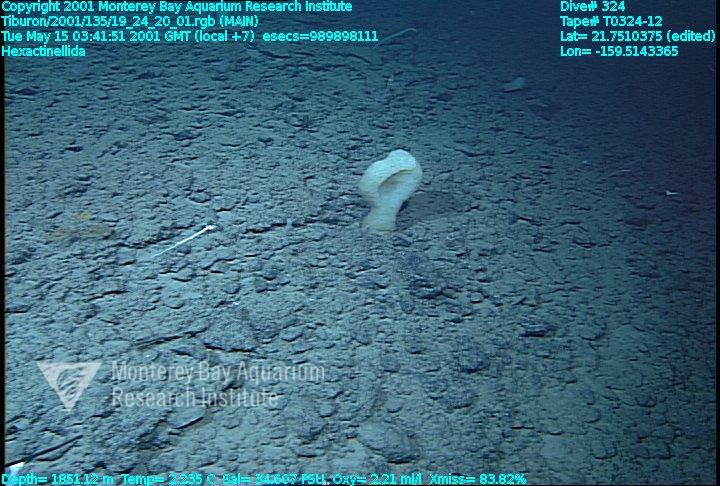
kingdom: Animalia
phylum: Porifera
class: Hexactinellida
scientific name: Hexactinellida
